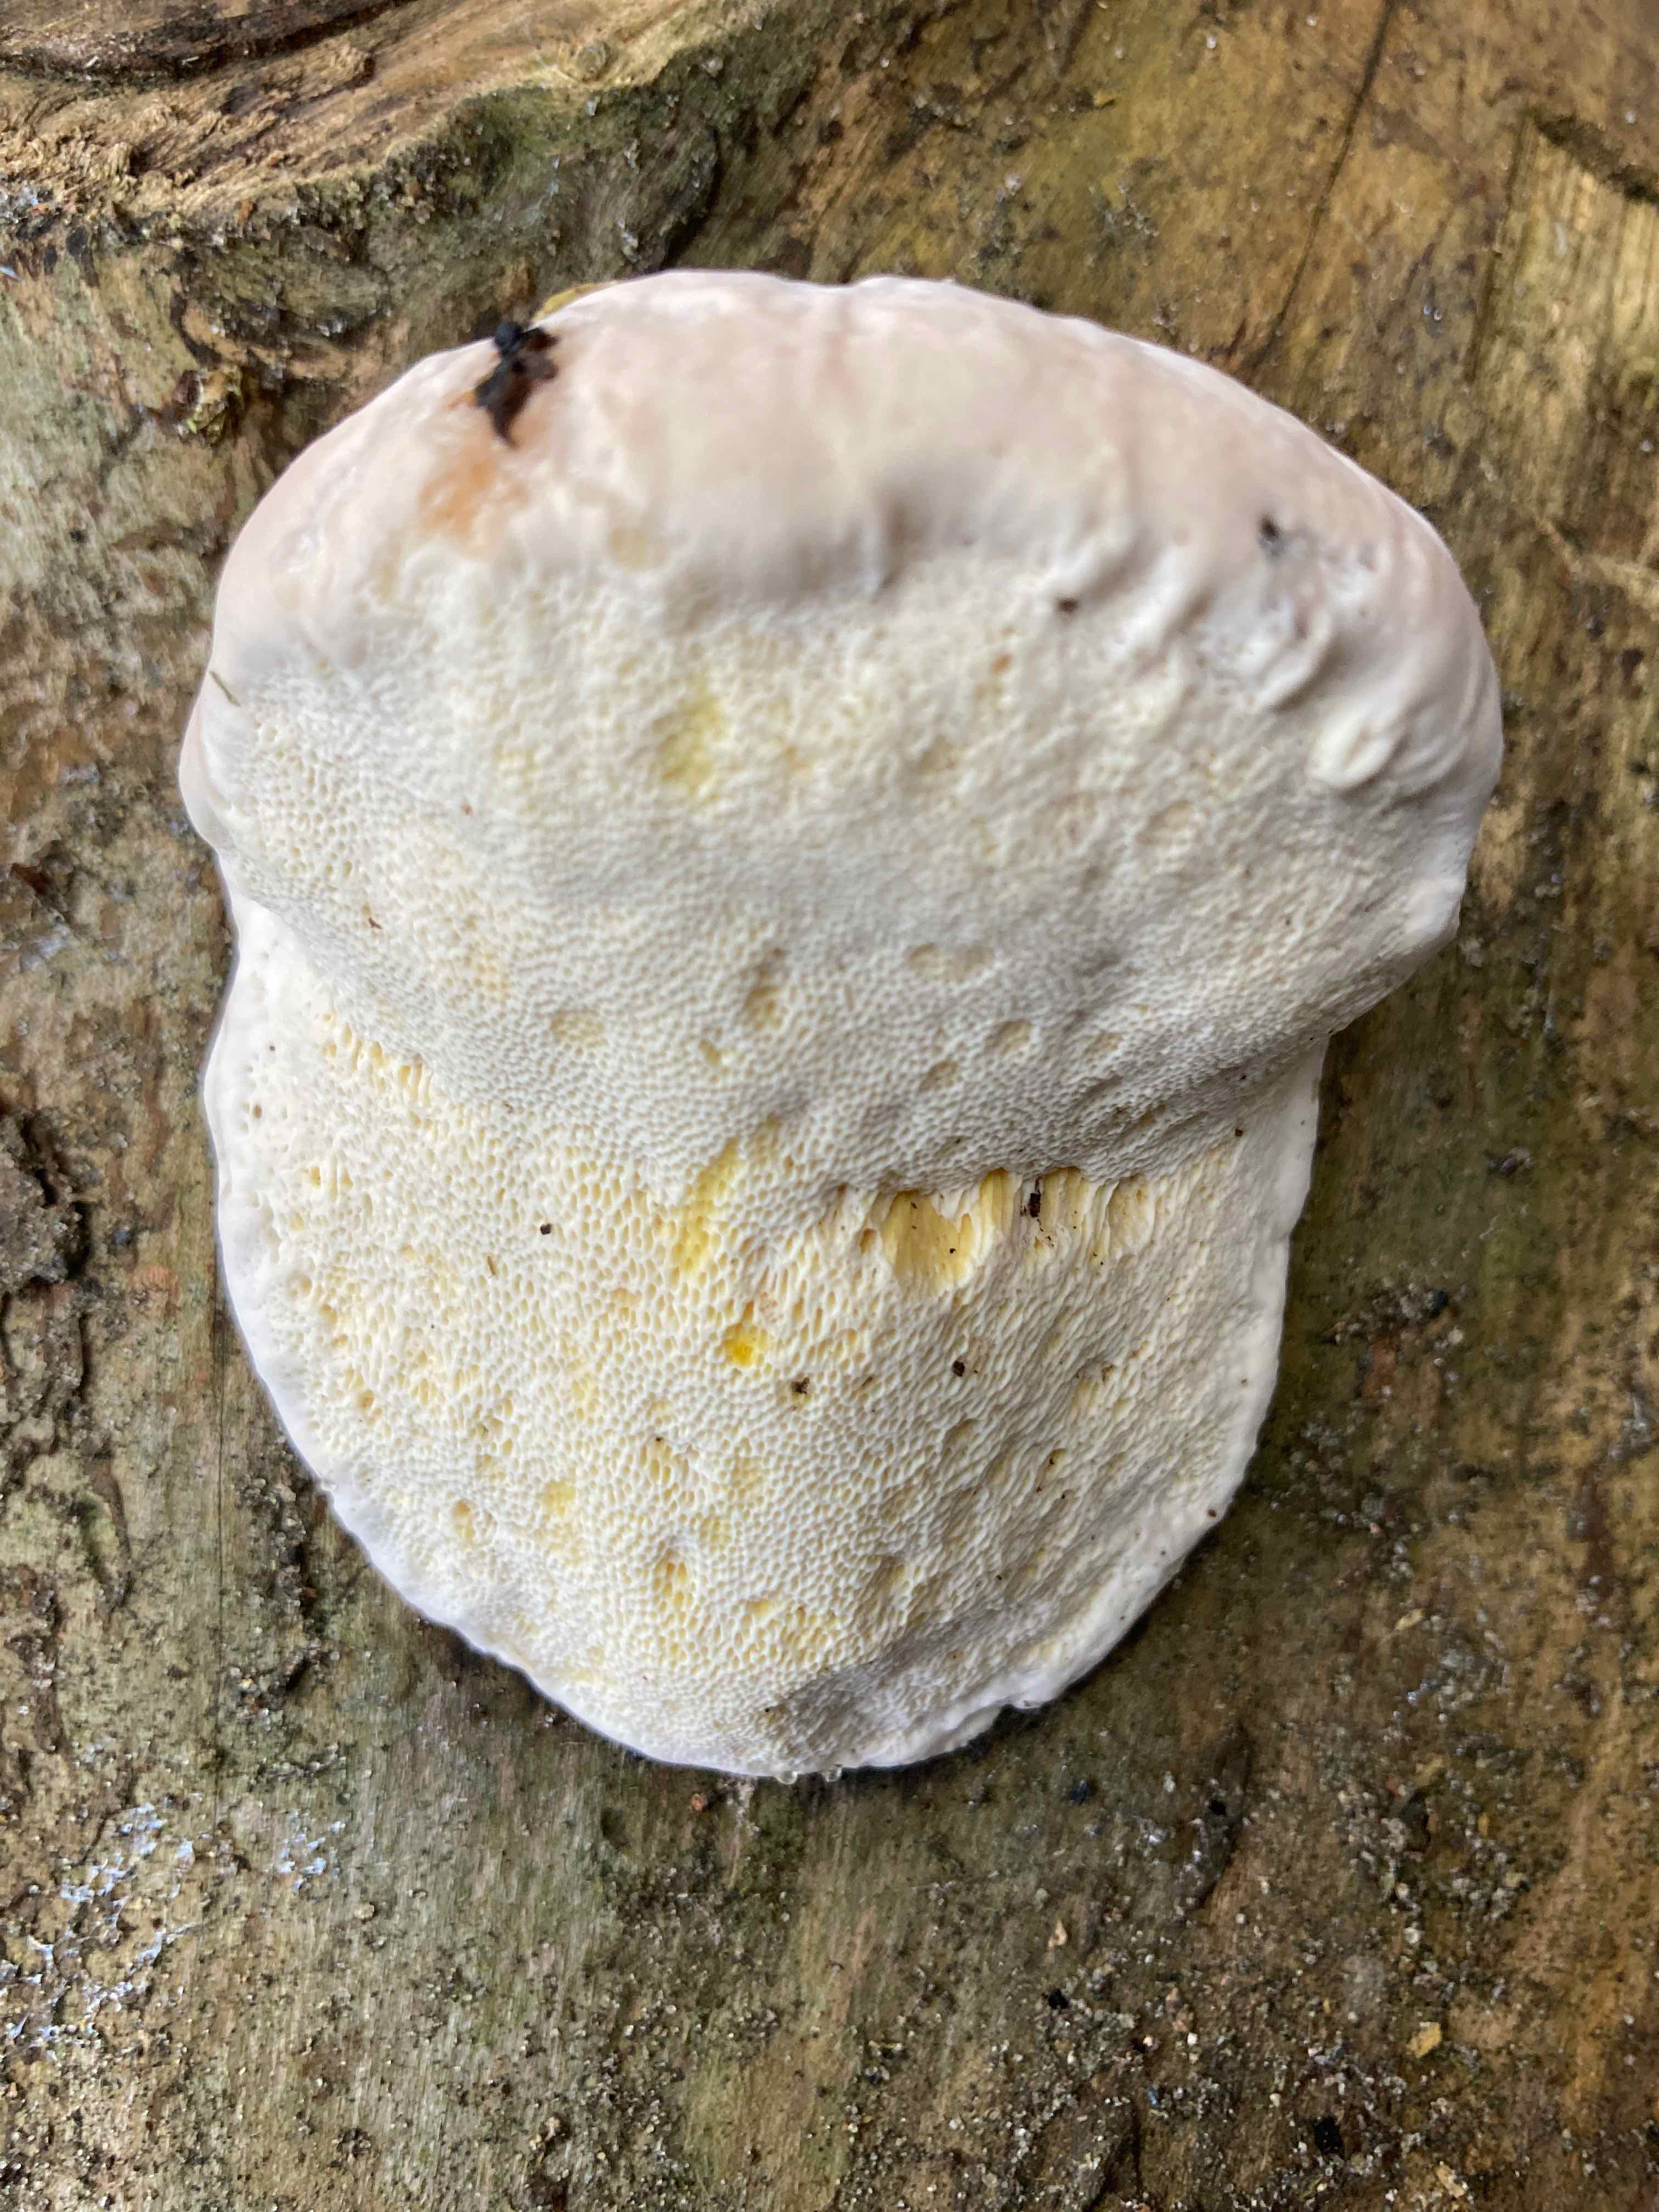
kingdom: Fungi
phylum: Basidiomycota
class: Agaricomycetes
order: Polyporales
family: Fomitopsidaceae
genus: Fomitopsis
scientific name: Fomitopsis pinicola
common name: randbæltet hovporesvamp
